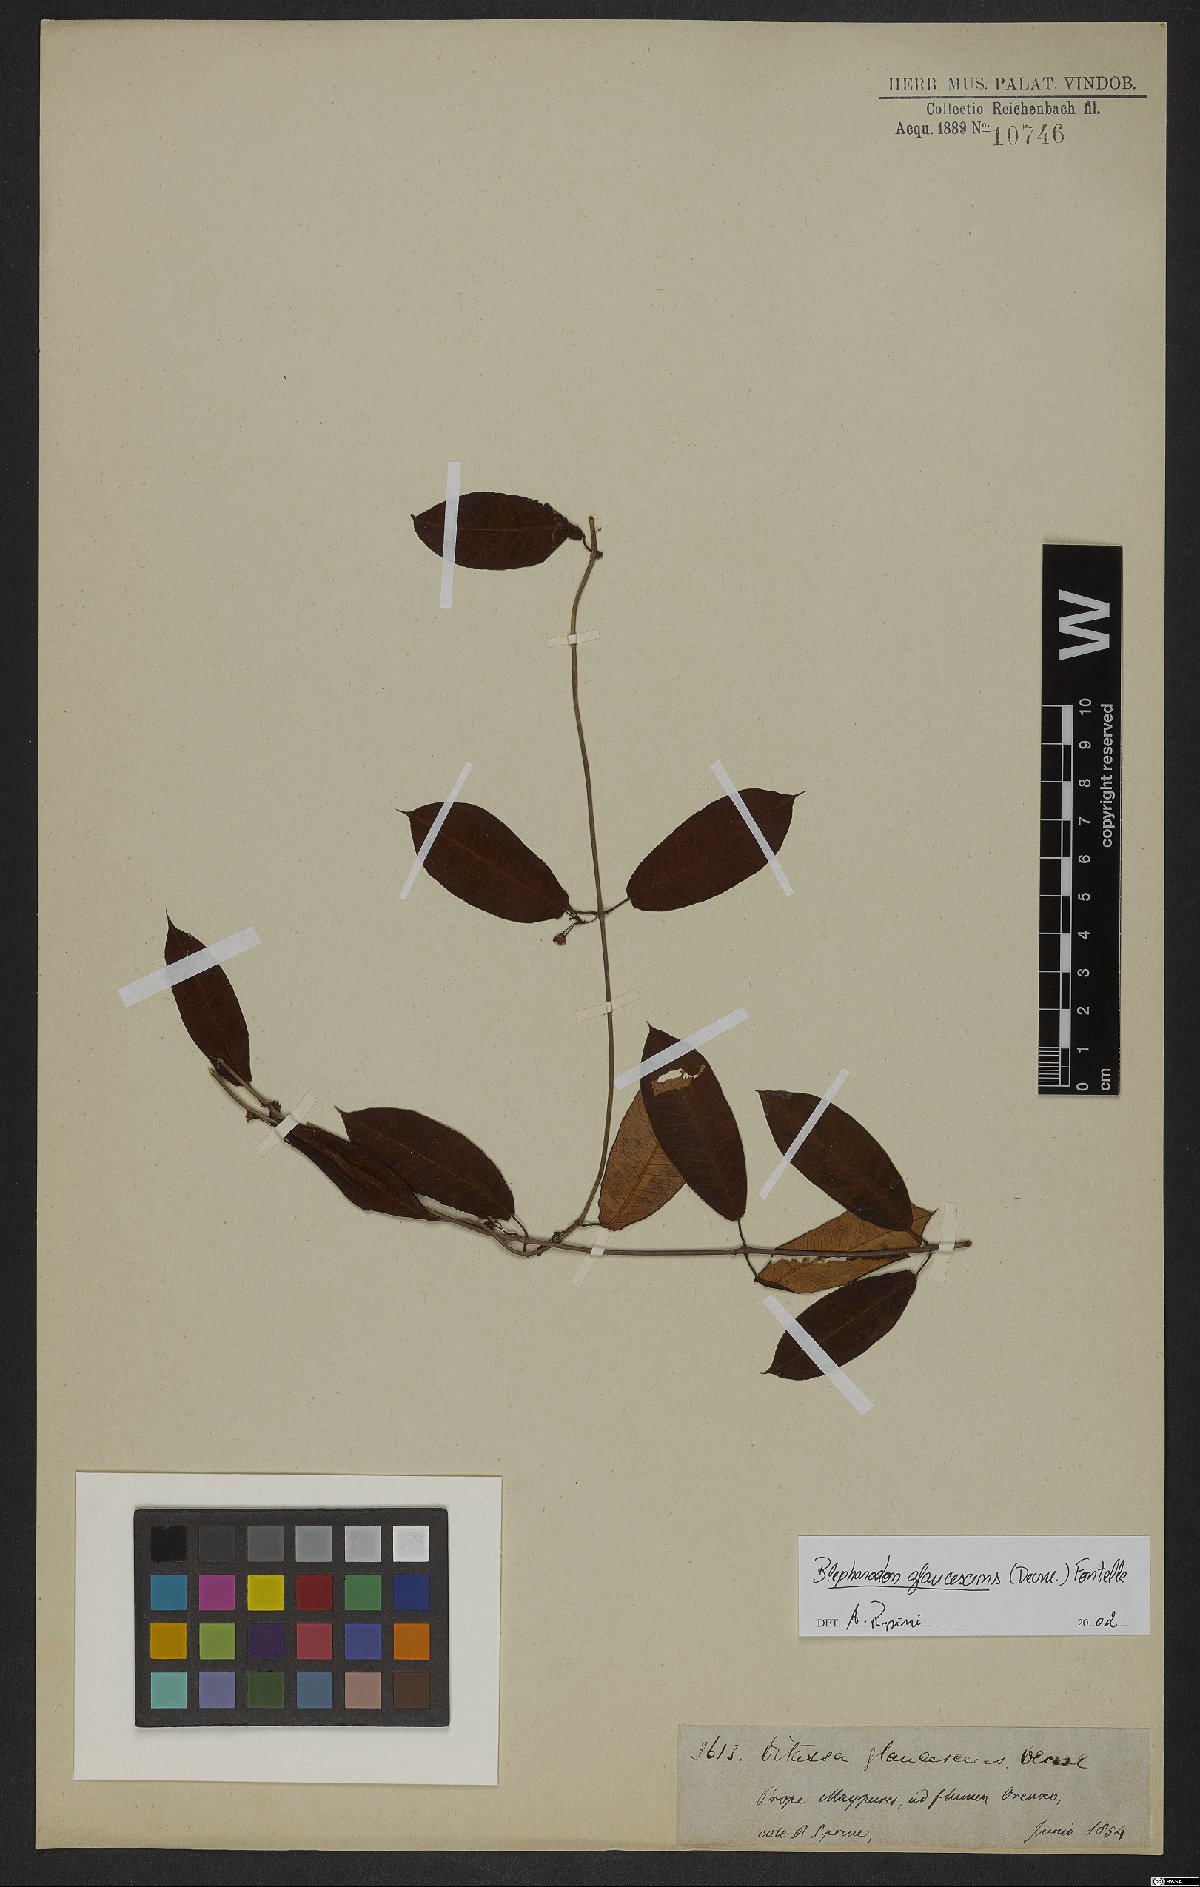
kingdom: Plantae
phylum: Tracheophyta
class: Magnoliopsida
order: Gentianales
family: Apocynaceae
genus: Blepharodon
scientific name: Blepharodon glaucescens
